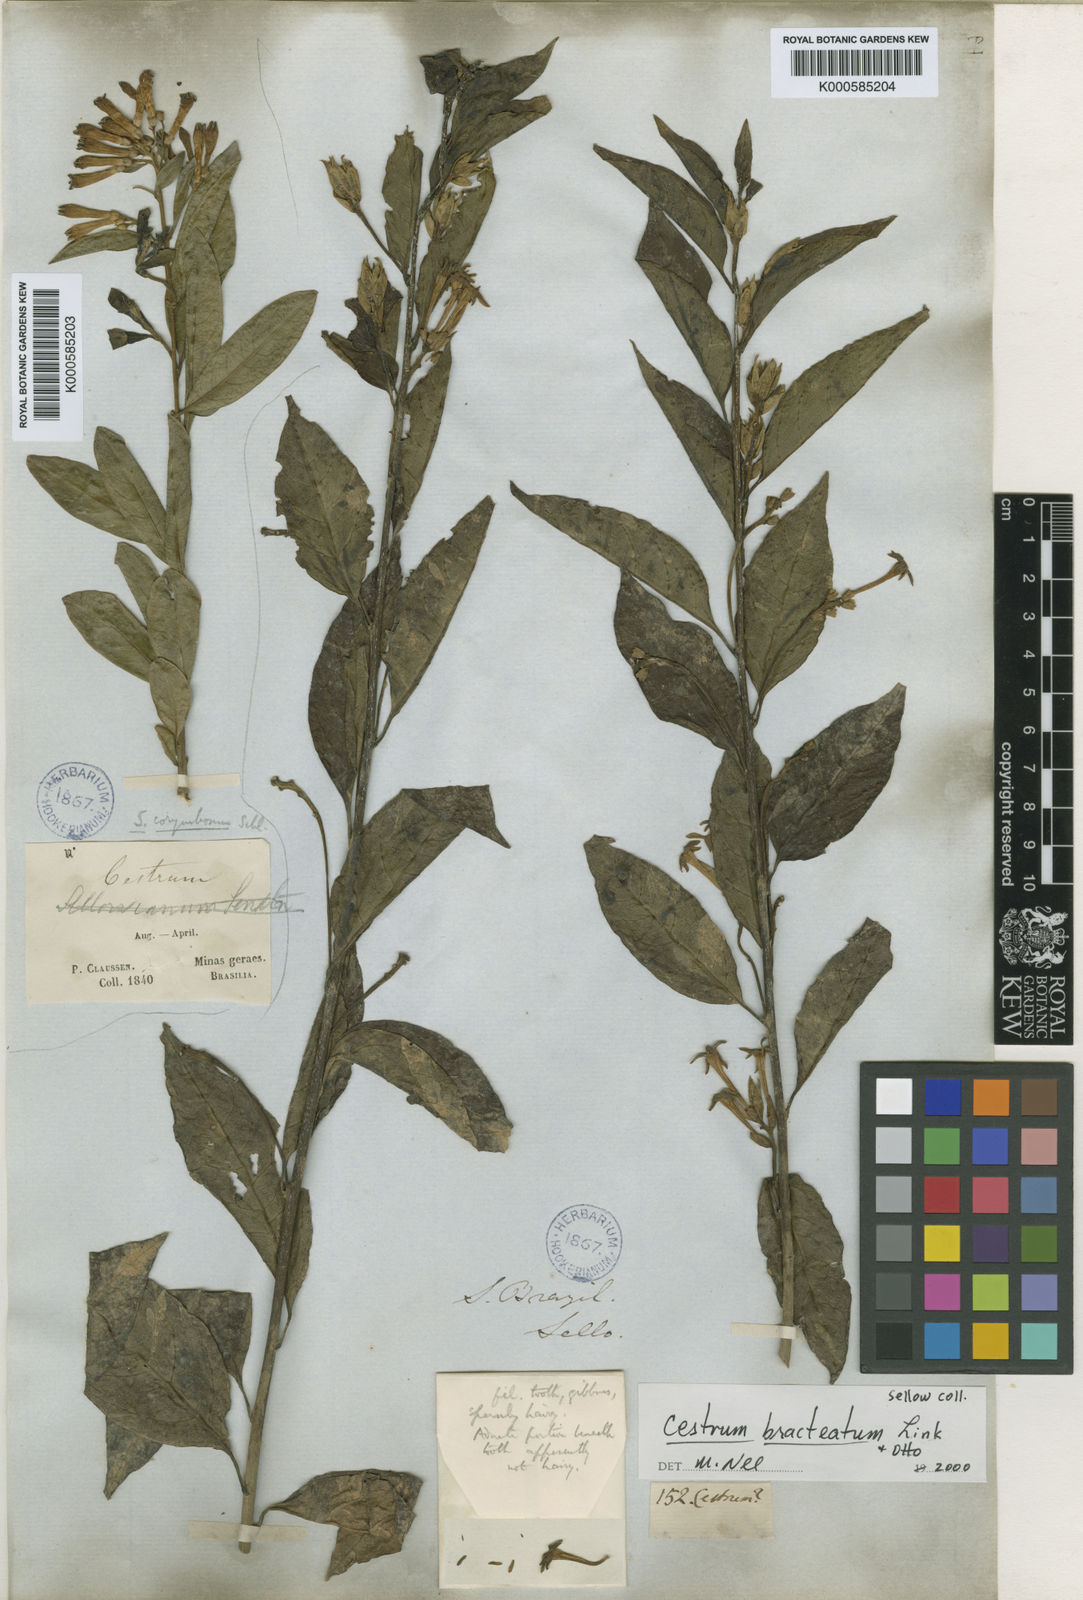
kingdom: Plantae
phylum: Tracheophyta
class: Magnoliopsida
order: Solanales
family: Solanaceae
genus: Cestrum
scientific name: Cestrum bracteatum
